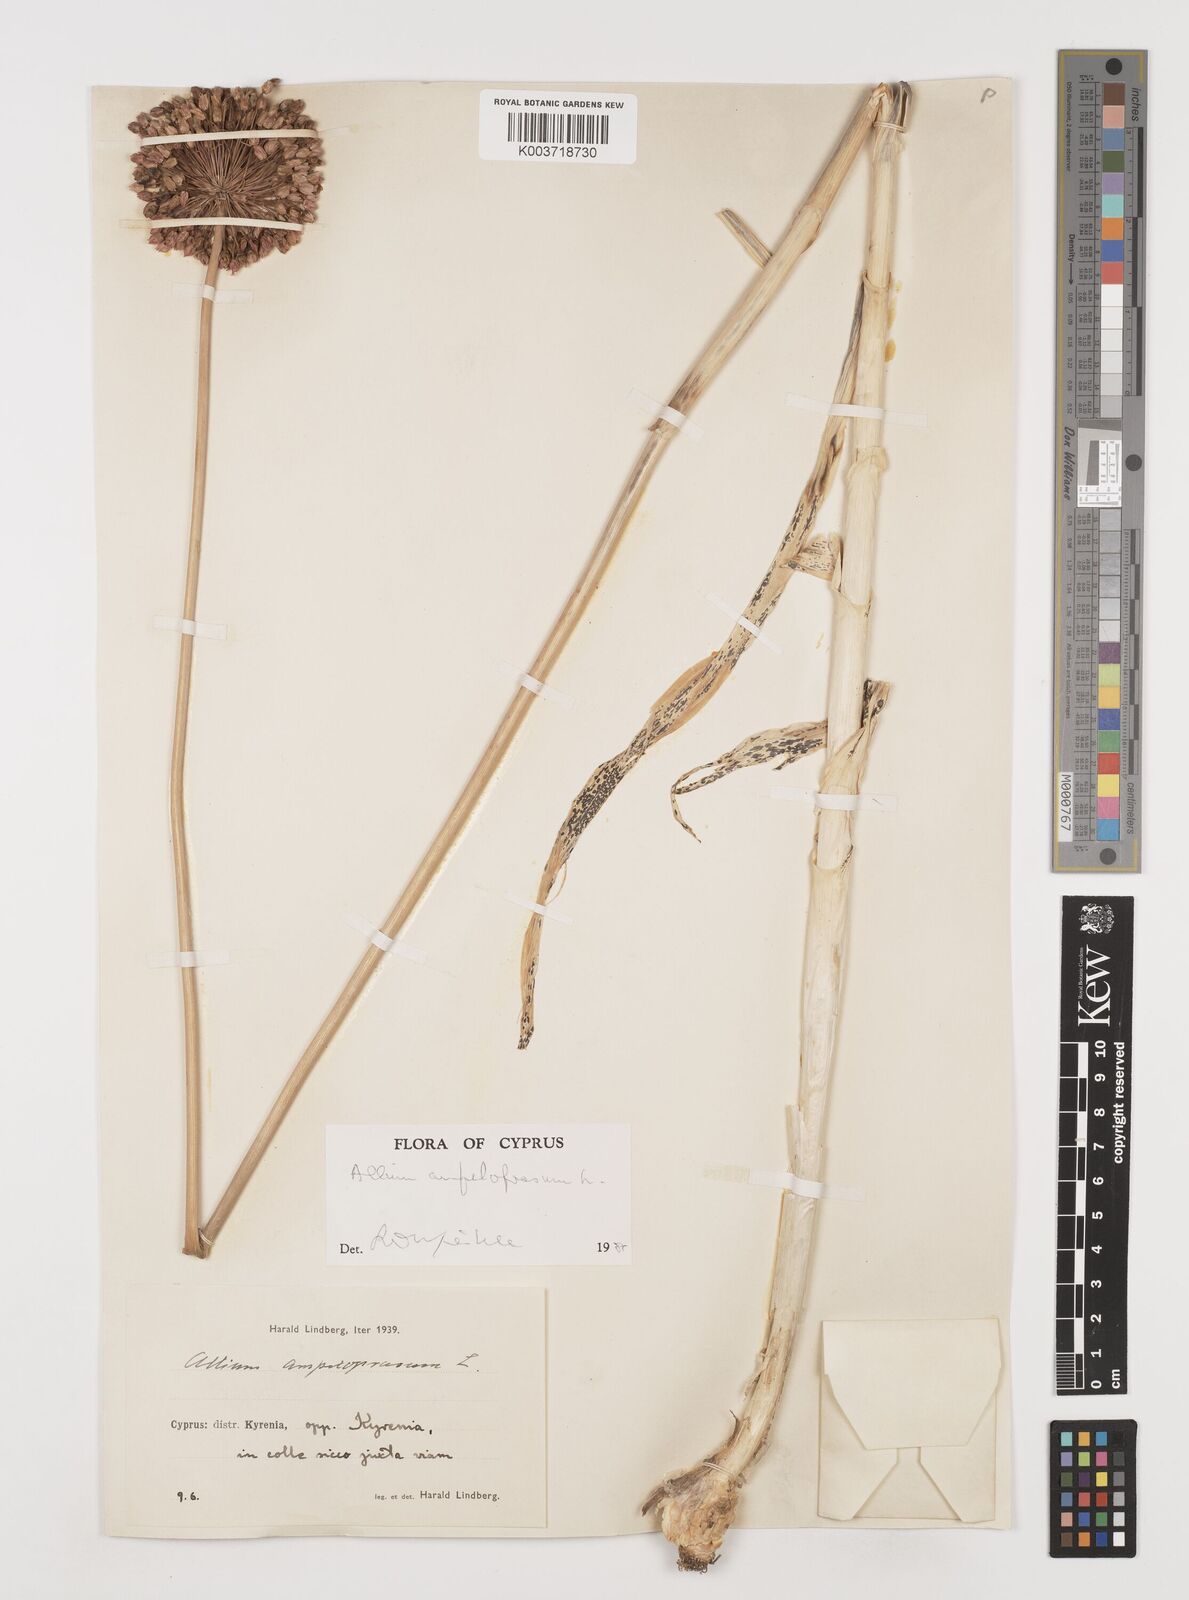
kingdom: Plantae
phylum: Tracheophyta
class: Liliopsida
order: Asparagales
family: Amaryllidaceae
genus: Allium
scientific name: Allium ampeloprasum
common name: Wild leek
